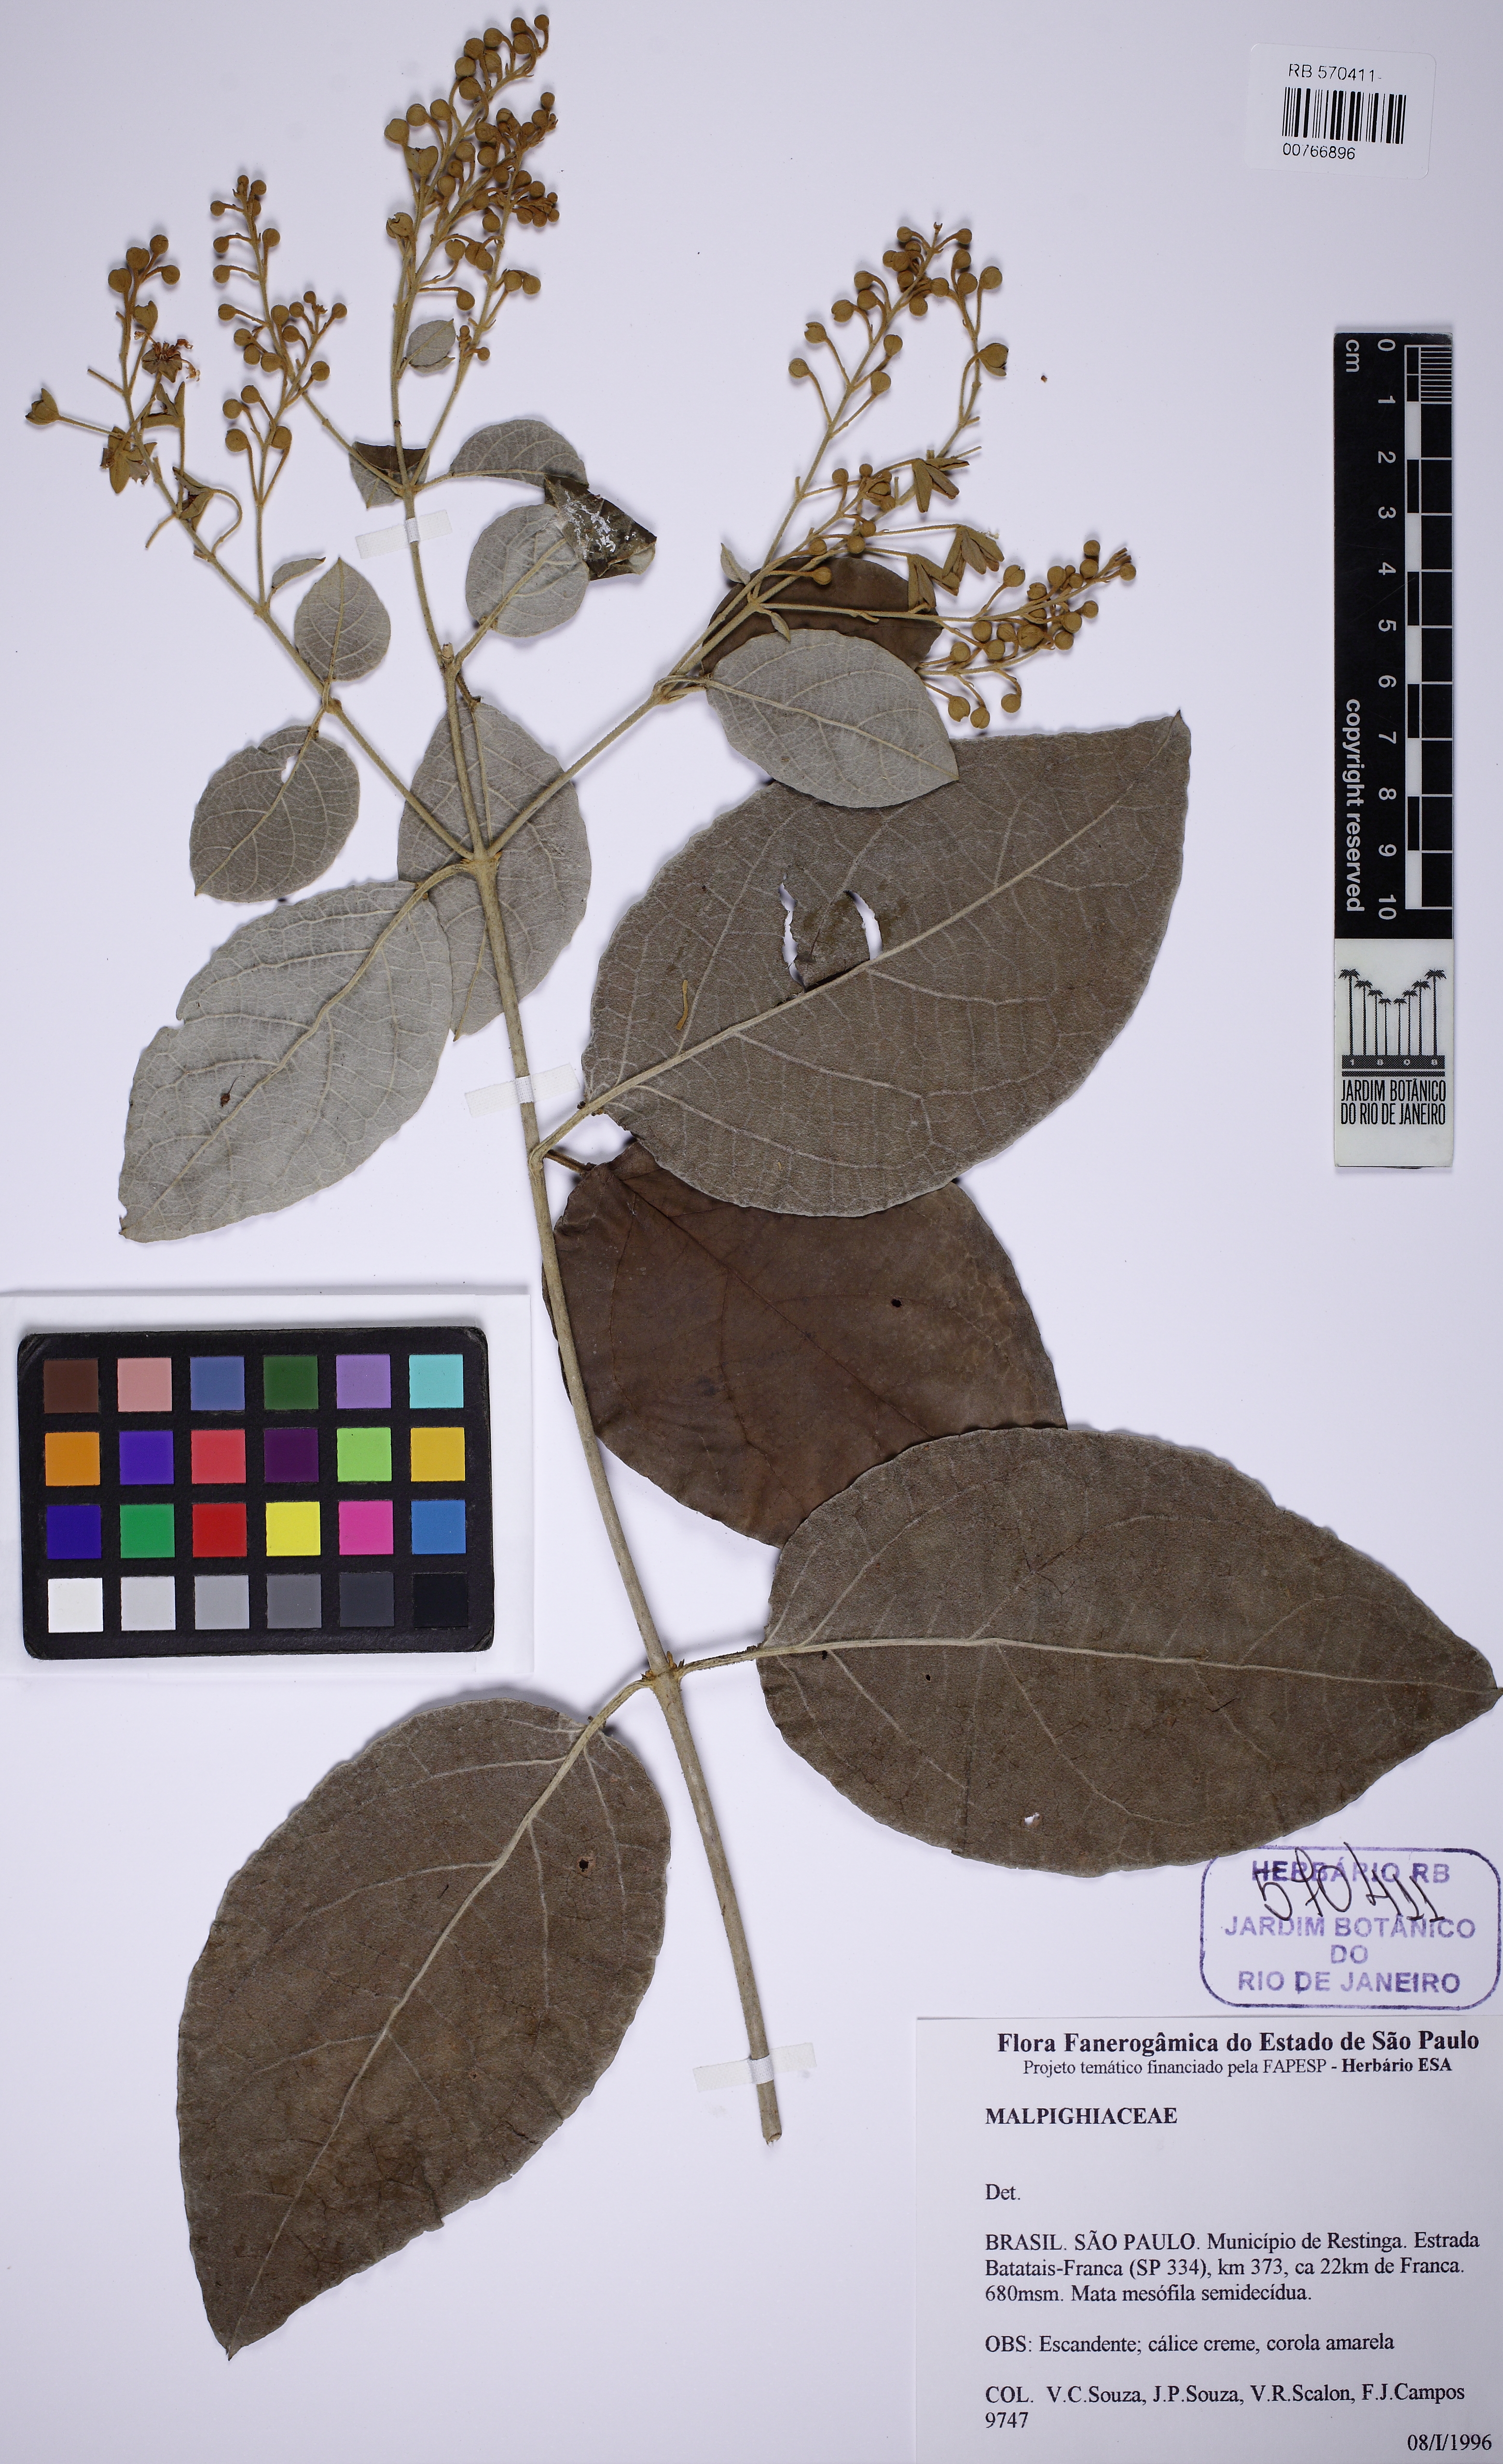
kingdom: Plantae
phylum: Tracheophyta
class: Magnoliopsida
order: Malpighiales
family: Malpighiaceae
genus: Thryallis
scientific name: Thryallis brachystachys
